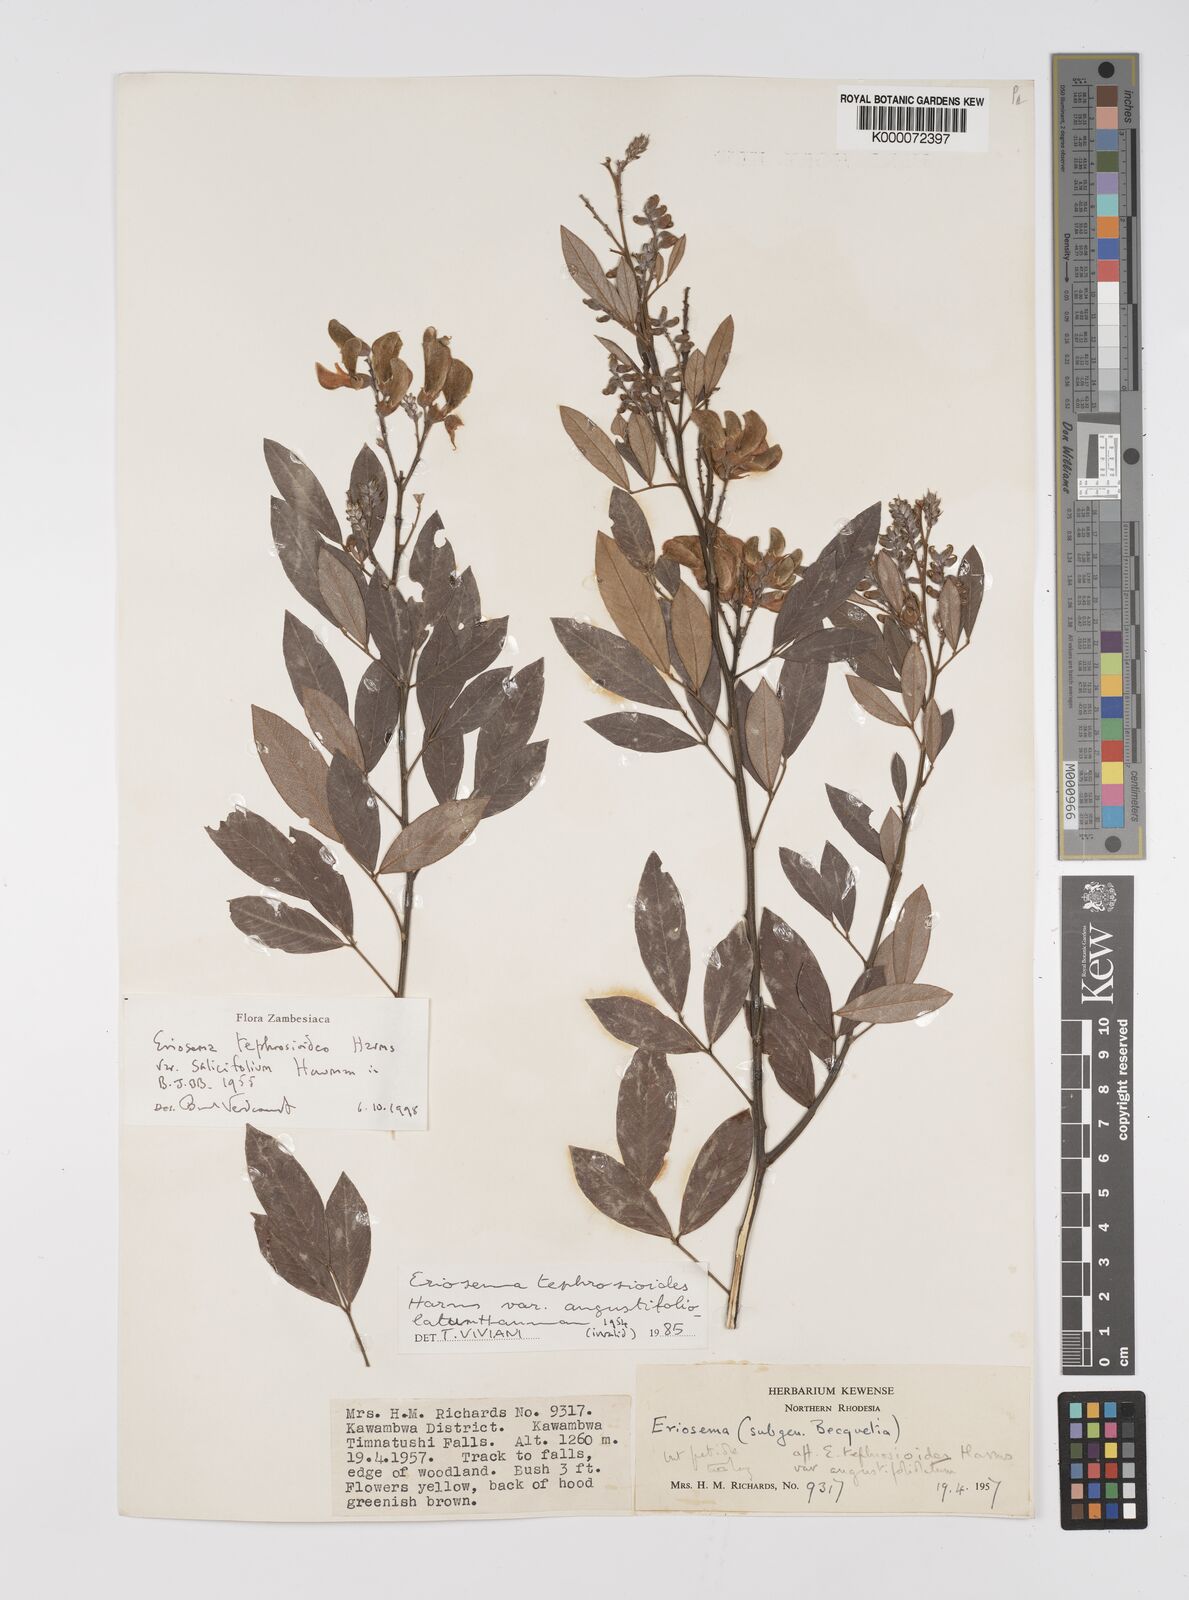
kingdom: Plantae
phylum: Tracheophyta
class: Magnoliopsida
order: Fabales
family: Fabaceae
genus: Eriosema
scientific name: Eriosema tephrosioides
